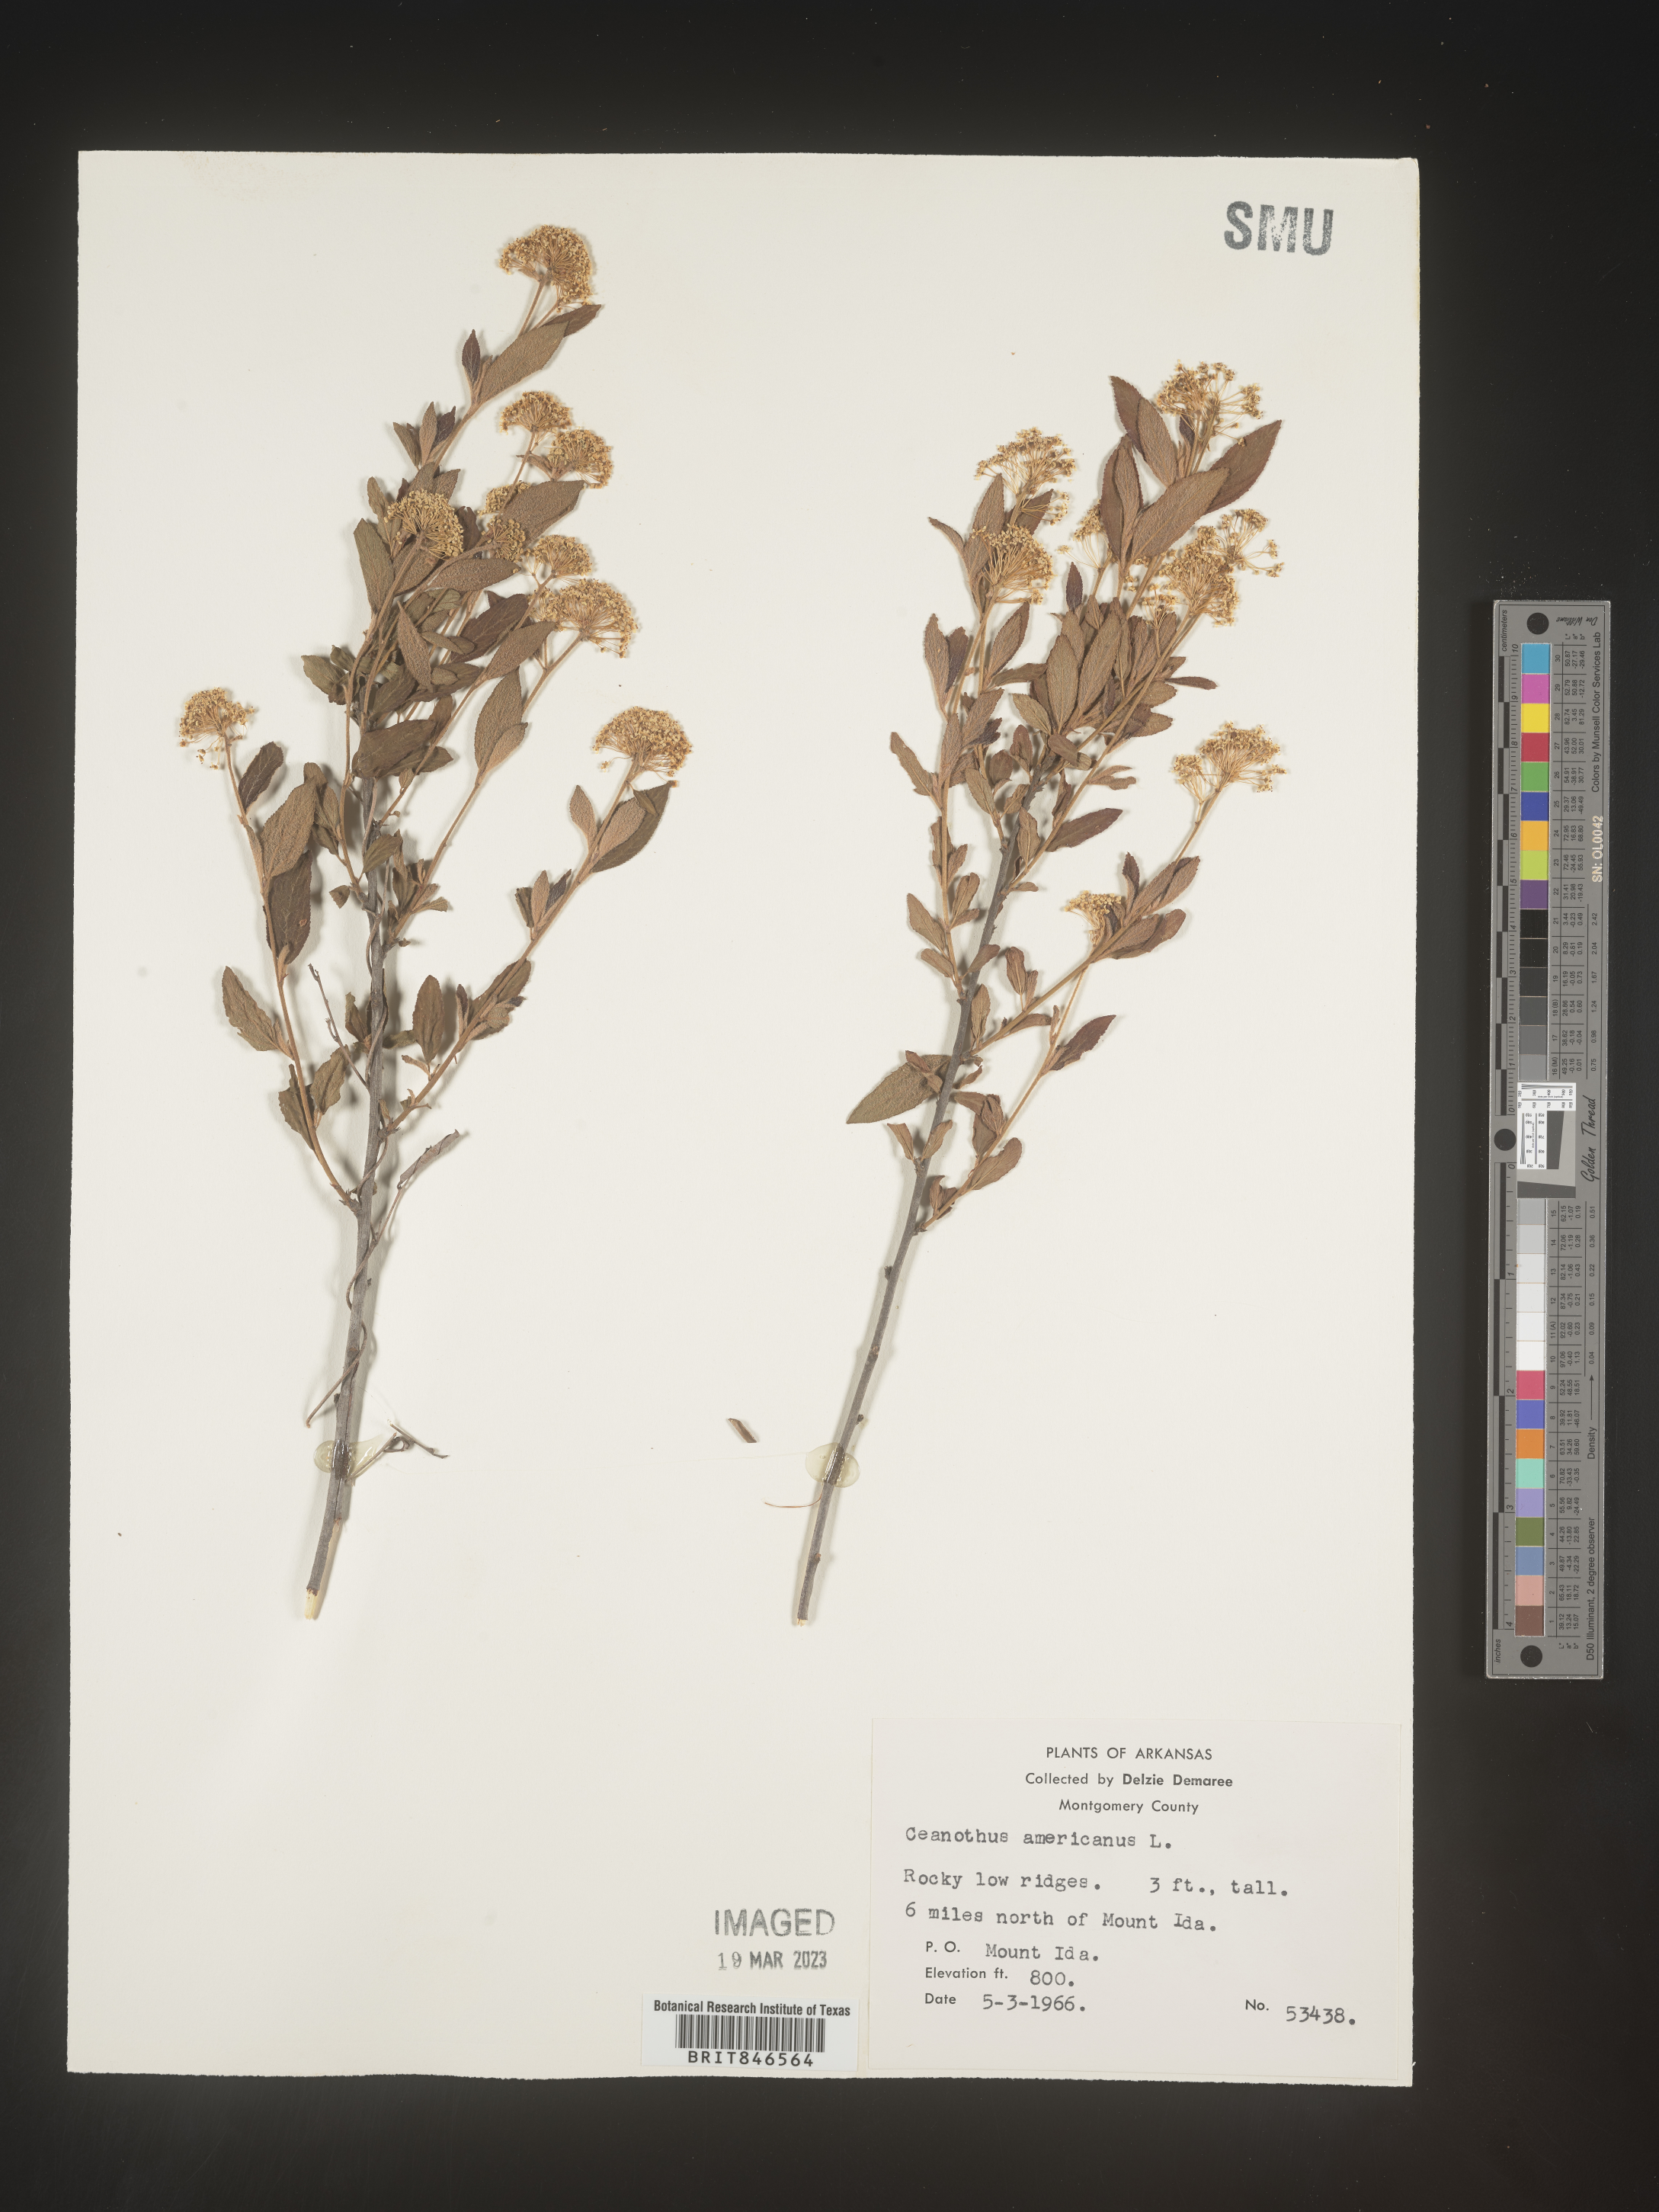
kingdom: Plantae
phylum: Tracheophyta
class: Magnoliopsida
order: Rosales
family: Rhamnaceae
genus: Ceanothus
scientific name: Ceanothus americanus
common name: Redroot
